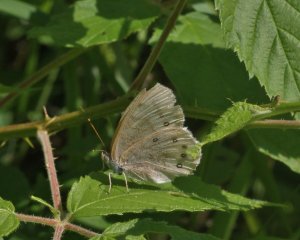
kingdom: Animalia
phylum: Arthropoda
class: Insecta
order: Lepidoptera
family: Nymphalidae
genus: Lethe
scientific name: Lethe eurydice
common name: Eyed Brown
